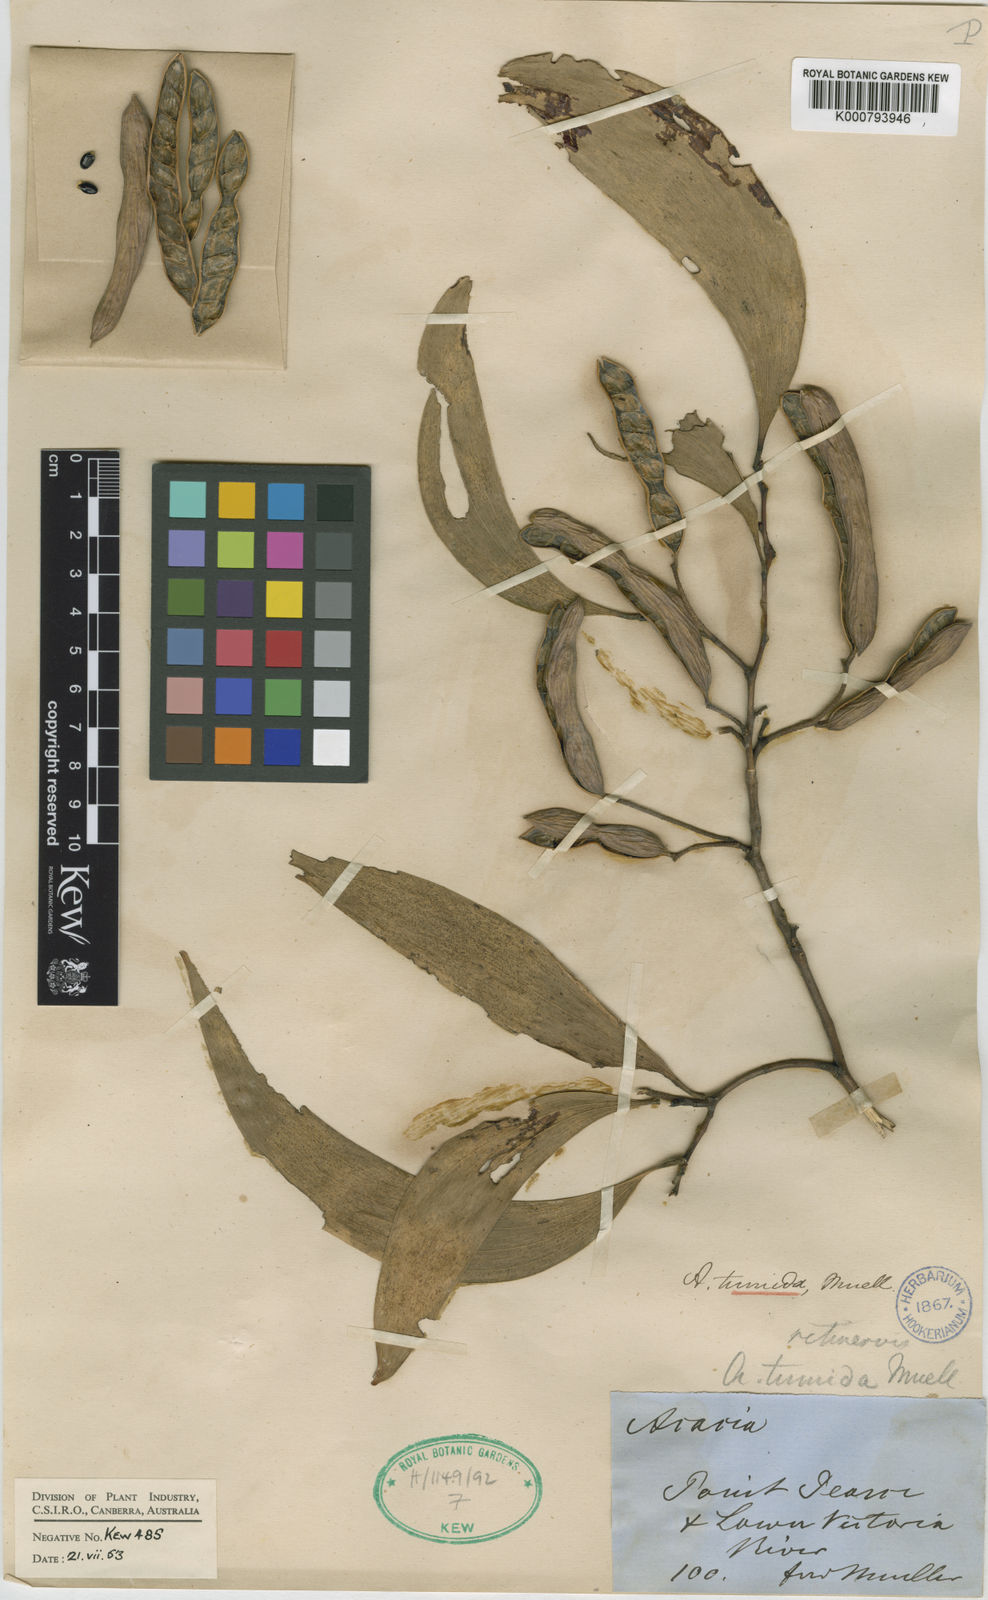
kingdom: Plantae
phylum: Tracheophyta
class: Magnoliopsida
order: Fabales
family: Fabaceae
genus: Acacia
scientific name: Acacia tumida
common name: Pindan wattle
